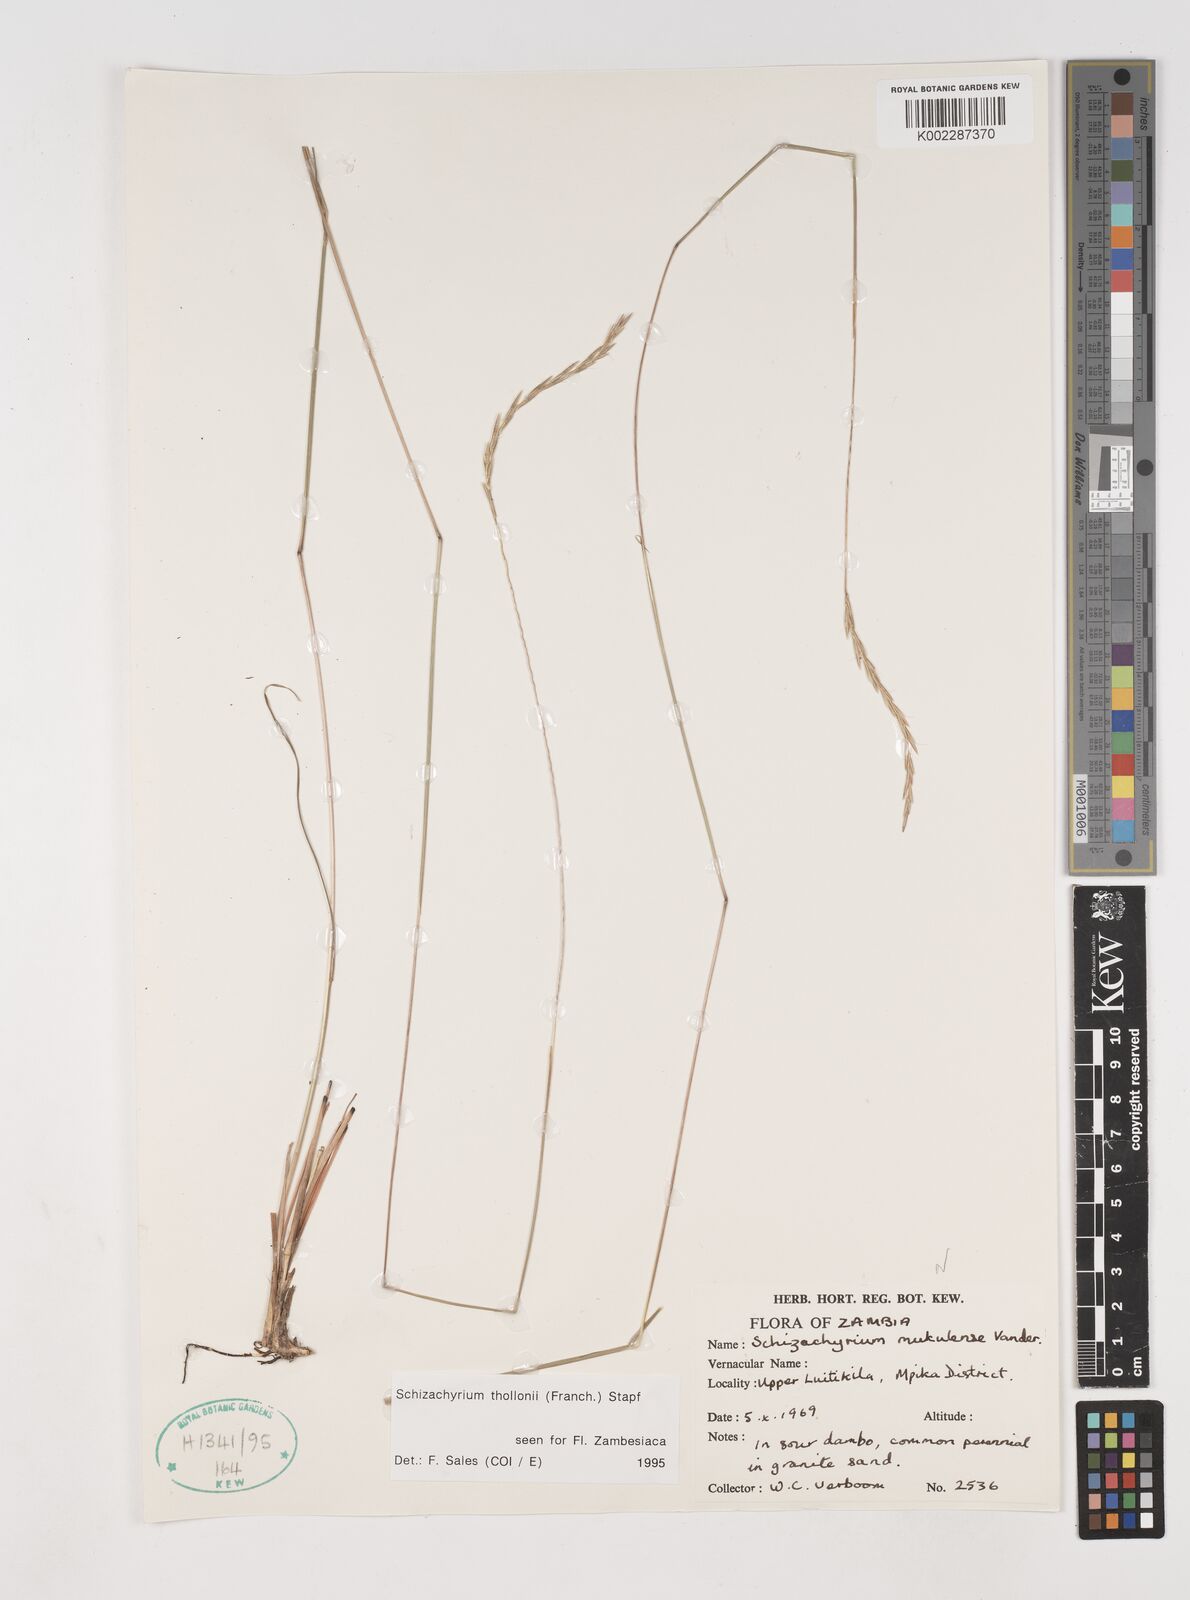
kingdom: Plantae
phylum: Tracheophyta
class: Liliopsida
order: Poales
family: Poaceae
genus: Schizachyrium
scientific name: Schizachyrium thollonii
